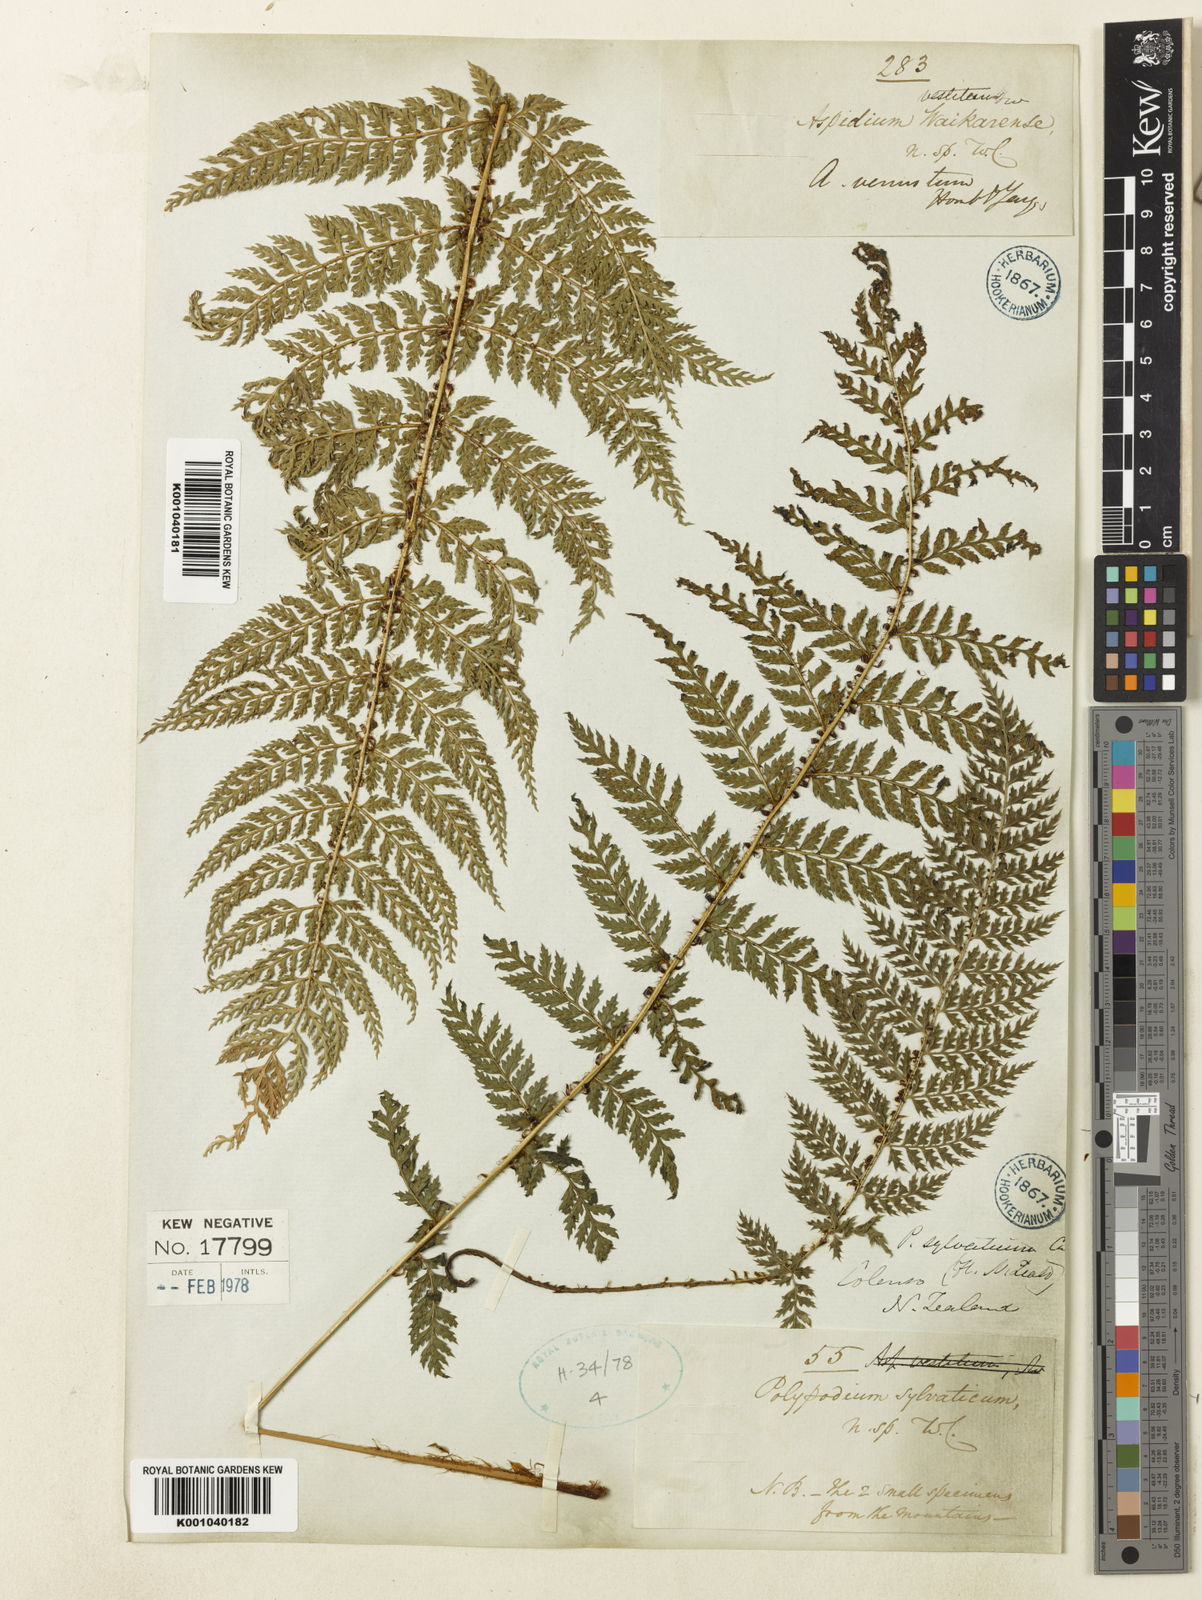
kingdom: Plantae
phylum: Tracheophyta
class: Polypodiopsida
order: Polypodiales
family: Dryopteridaceae
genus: Polystichum
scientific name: Polystichum silvaticum
